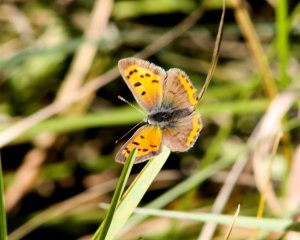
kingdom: Animalia
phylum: Arthropoda
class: Insecta
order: Lepidoptera
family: Lycaenidae
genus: Lycaena
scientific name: Lycaena phlaeas
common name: American Copper
